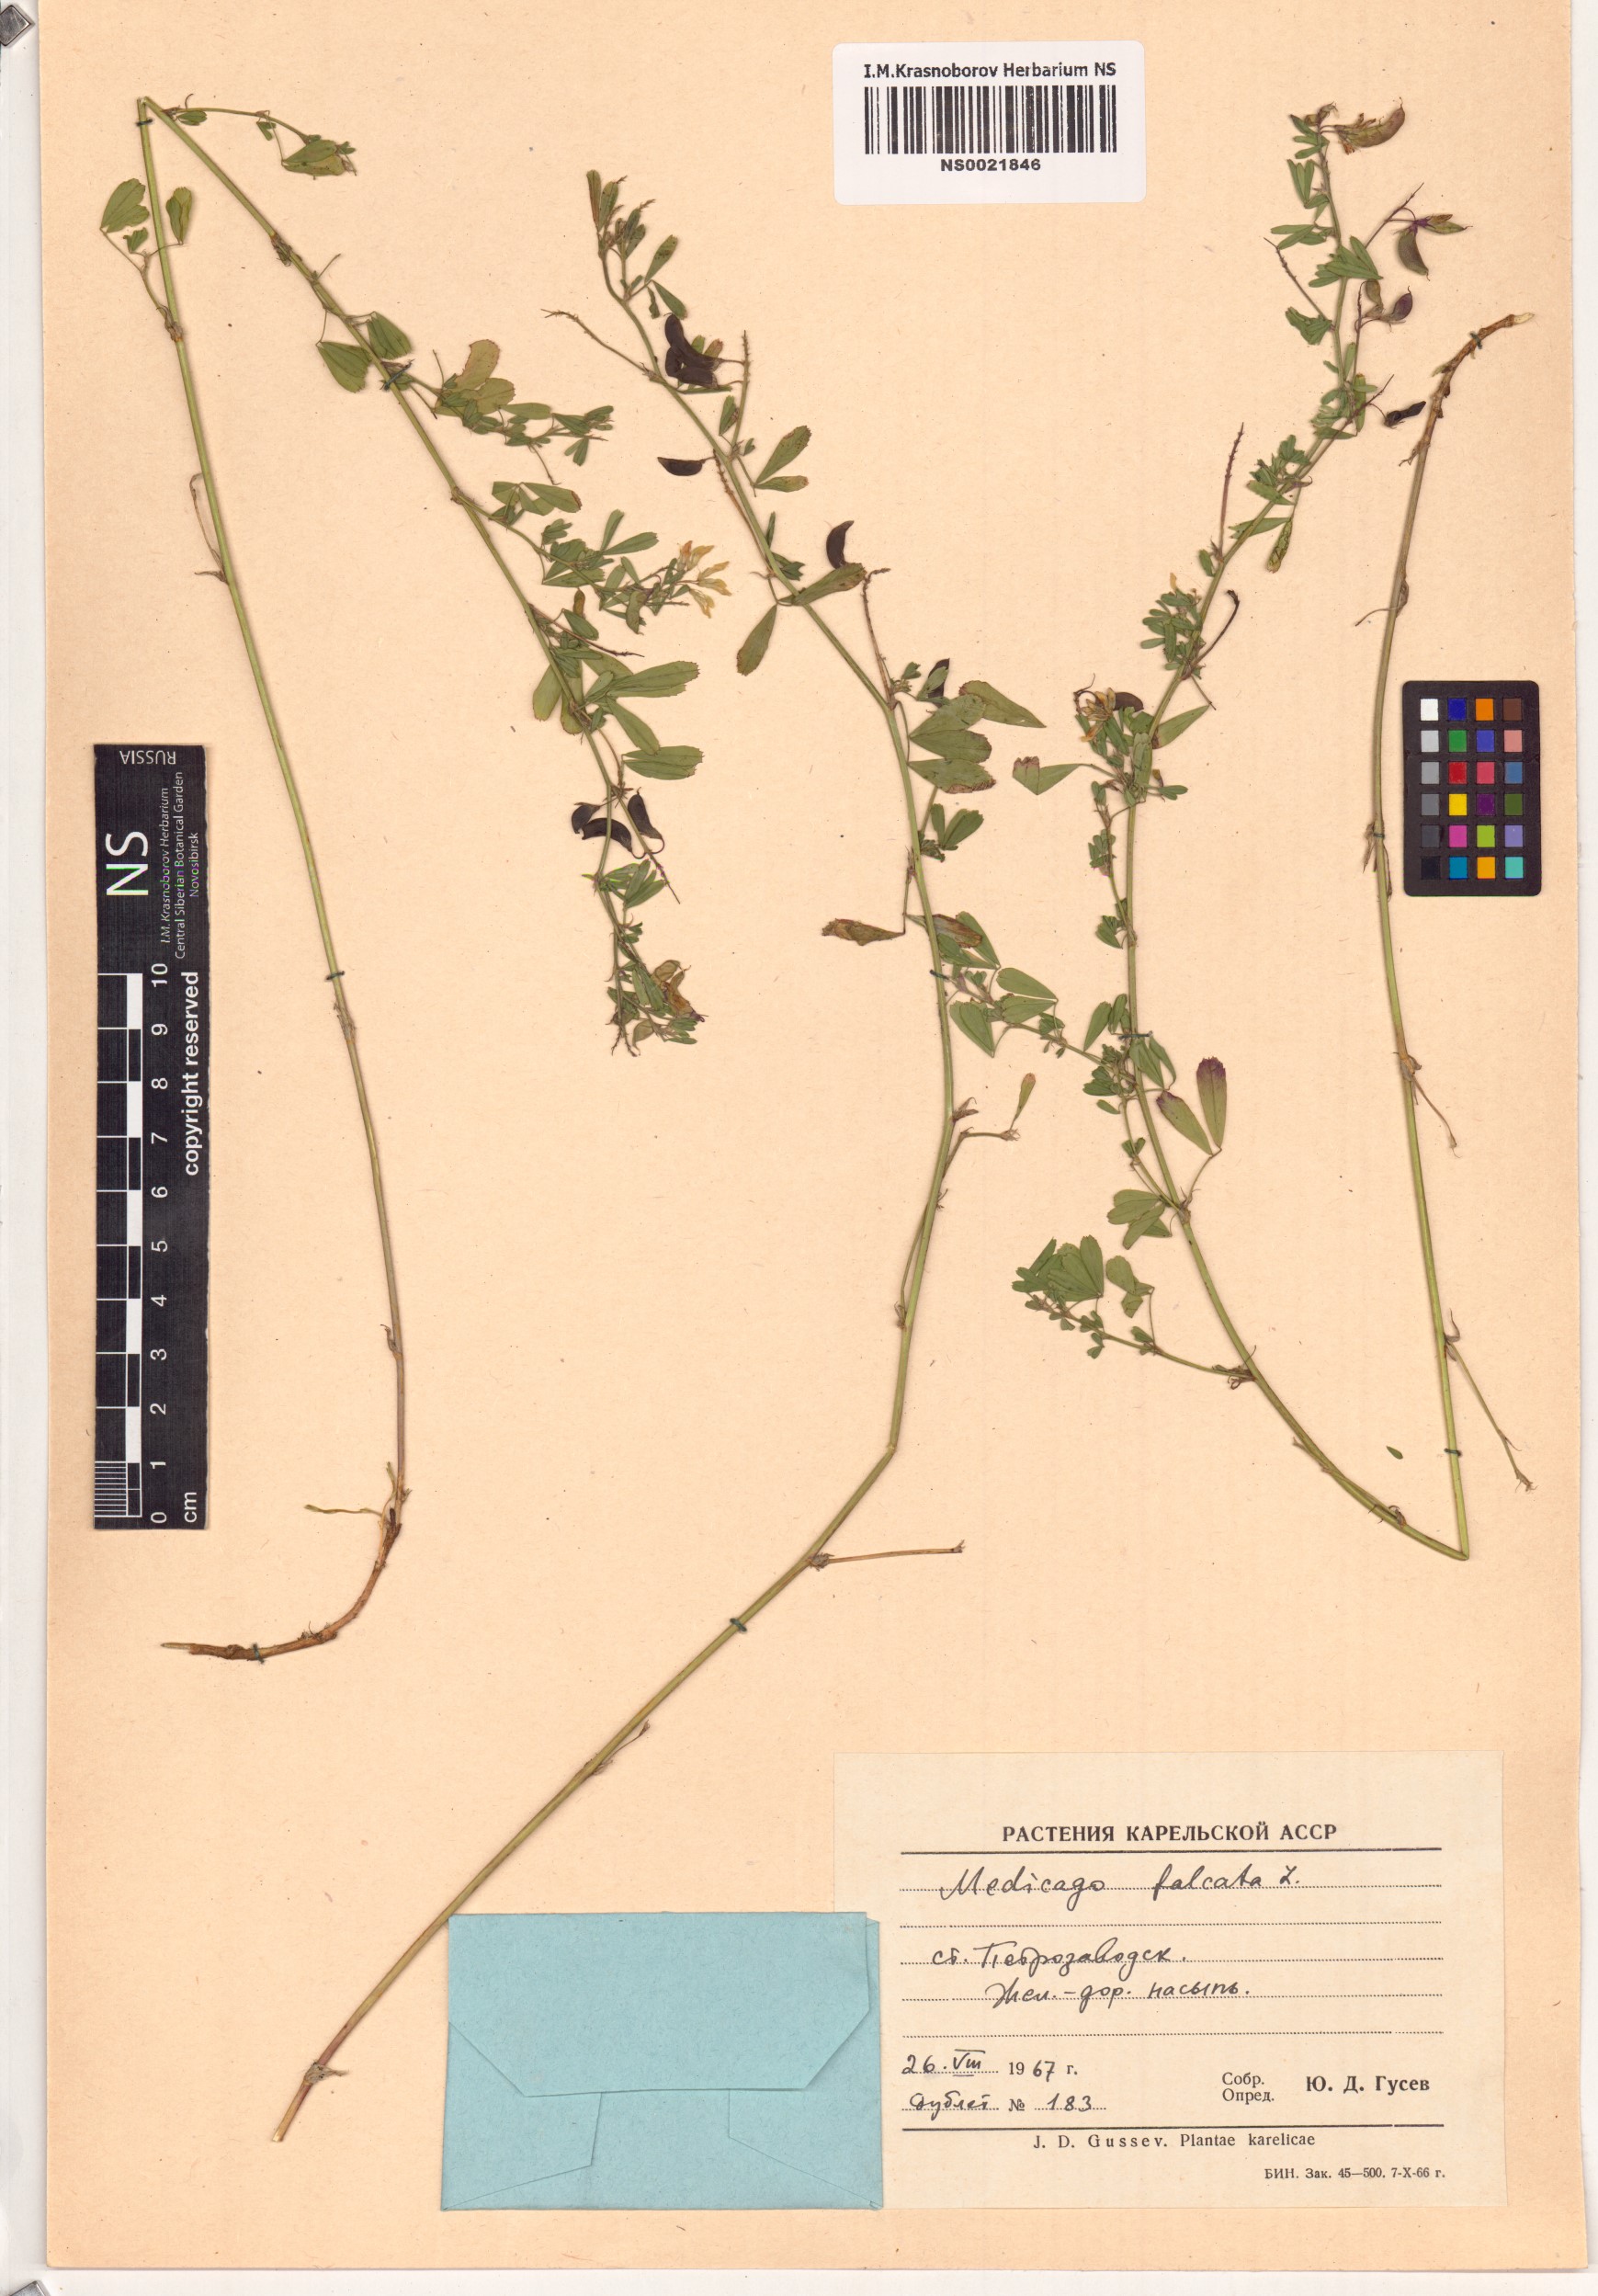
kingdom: Plantae
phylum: Tracheophyta
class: Magnoliopsida
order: Fabales
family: Fabaceae
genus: Medicago
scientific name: Medicago falcata
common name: Sickle medick
